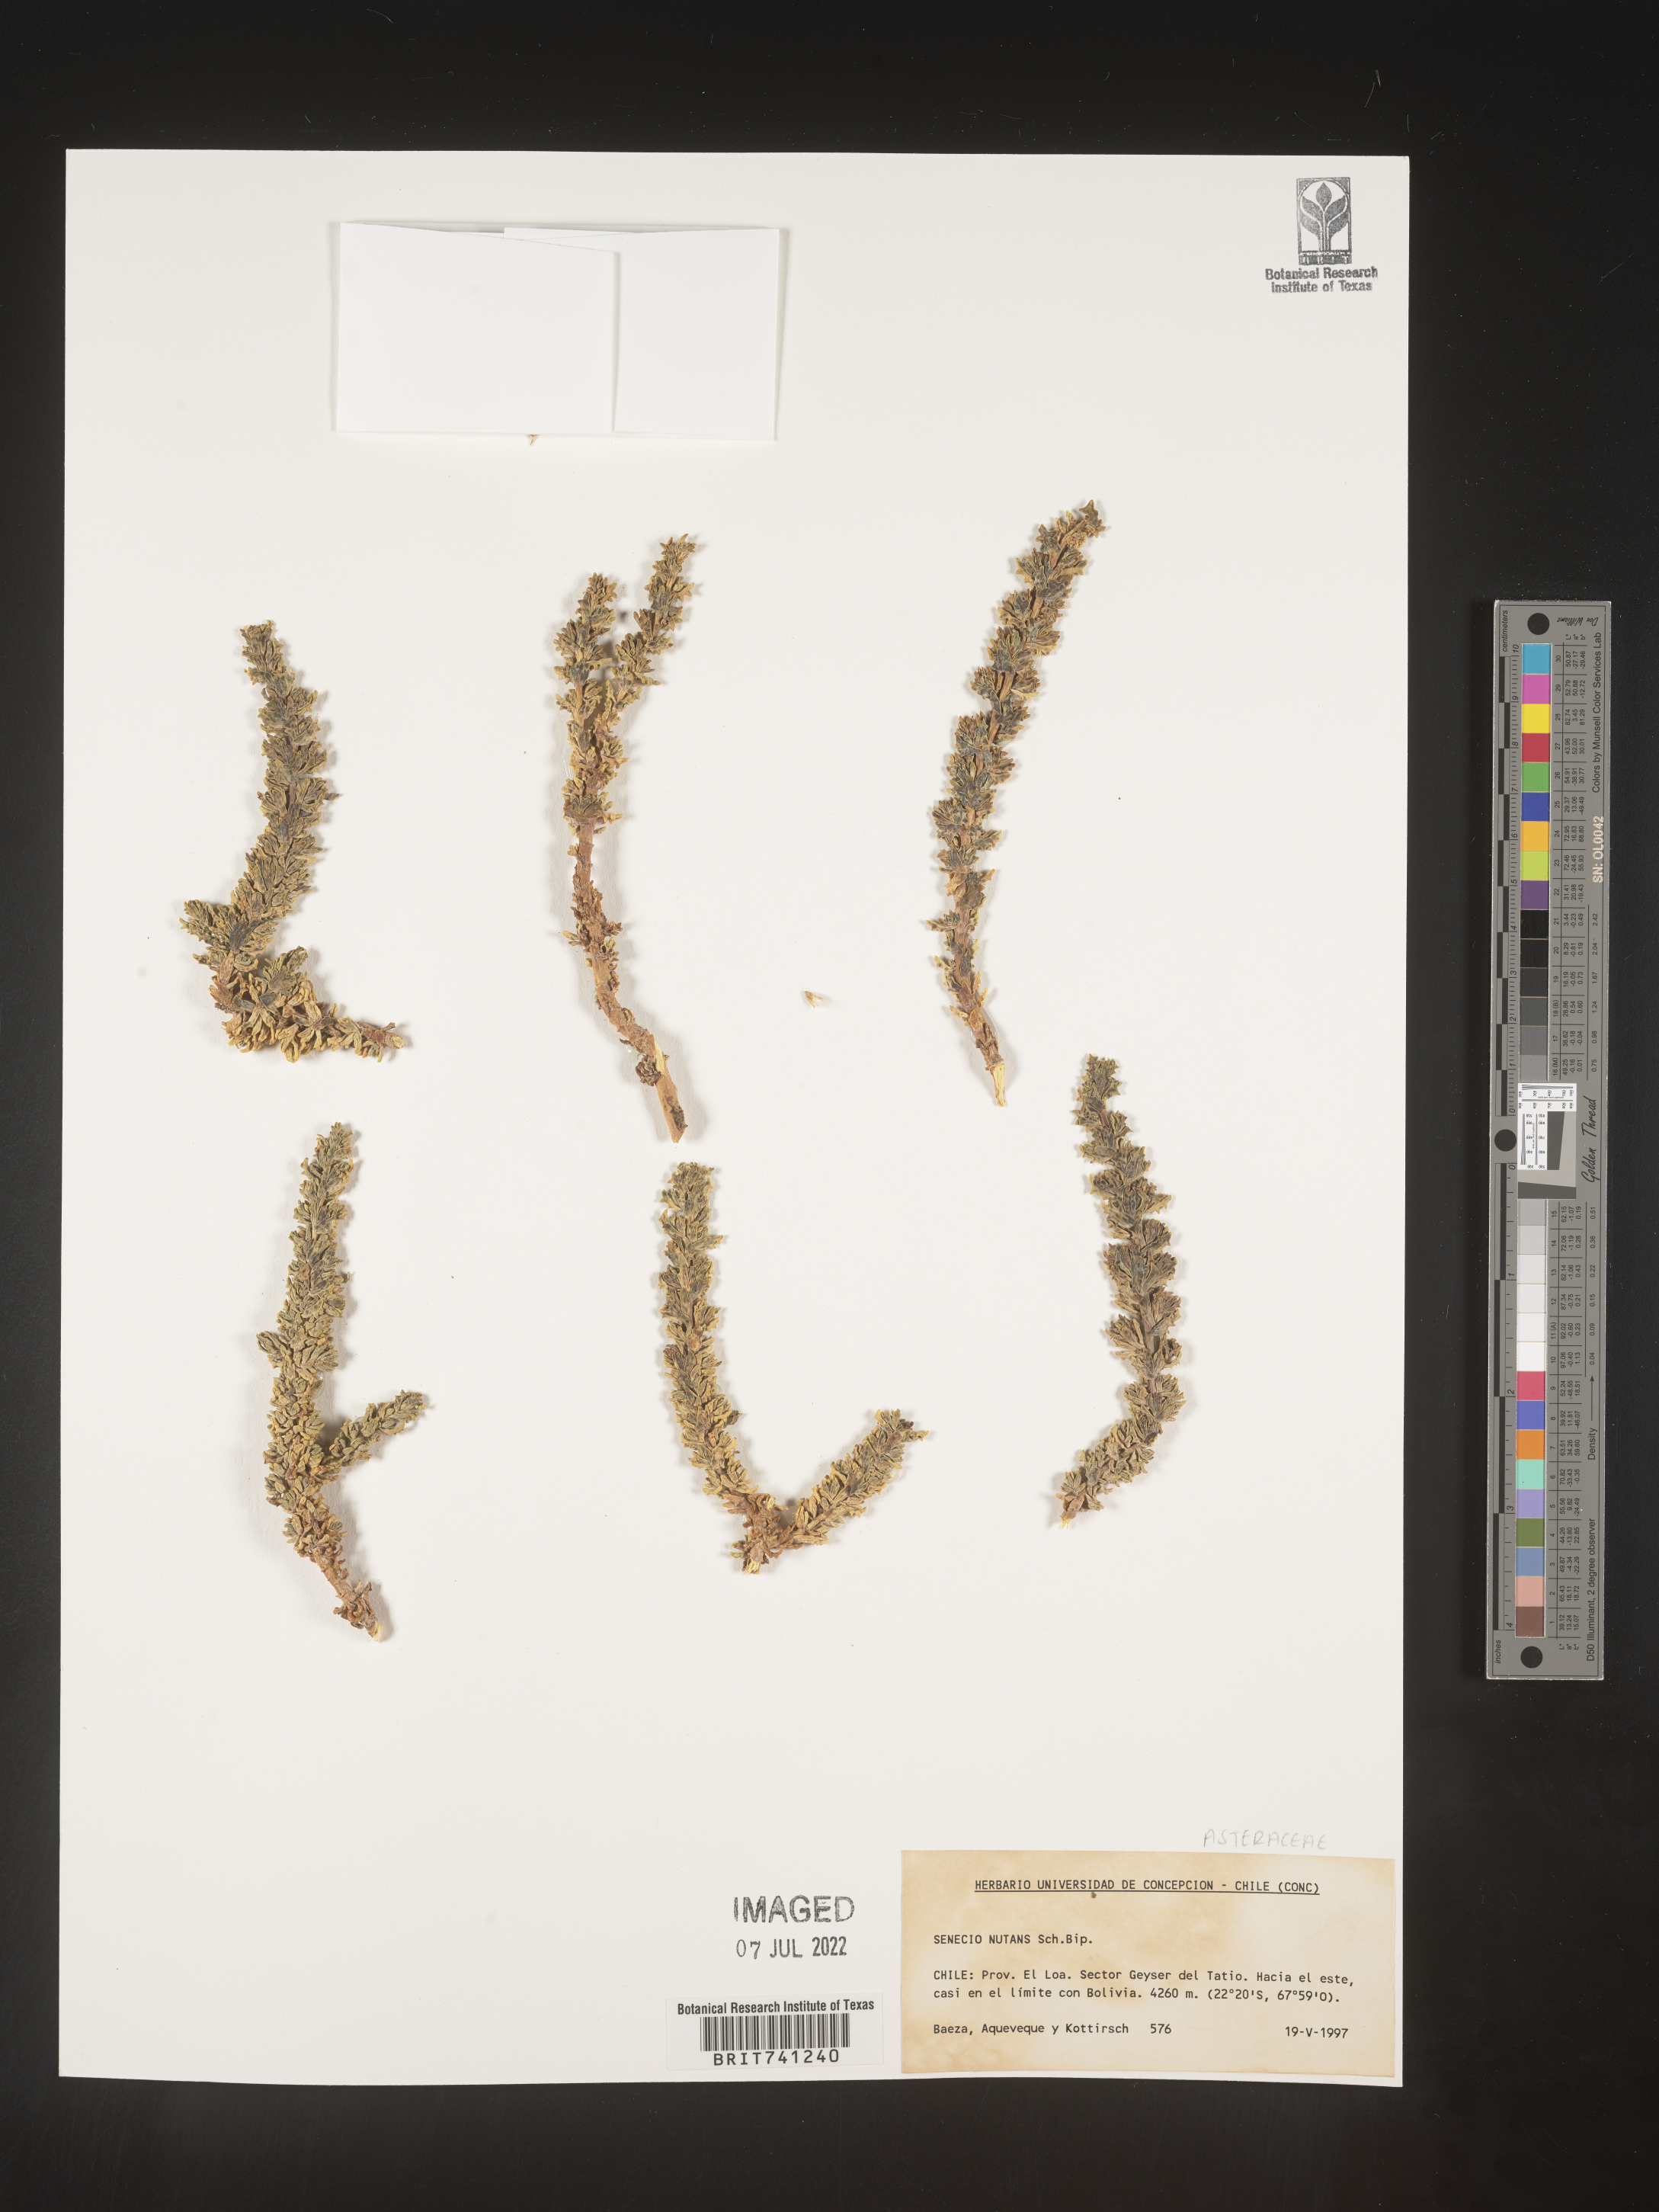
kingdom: Plantae
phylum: Tracheophyta
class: Magnoliopsida
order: Asterales
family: Asteraceae
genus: Senecio
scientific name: Senecio
